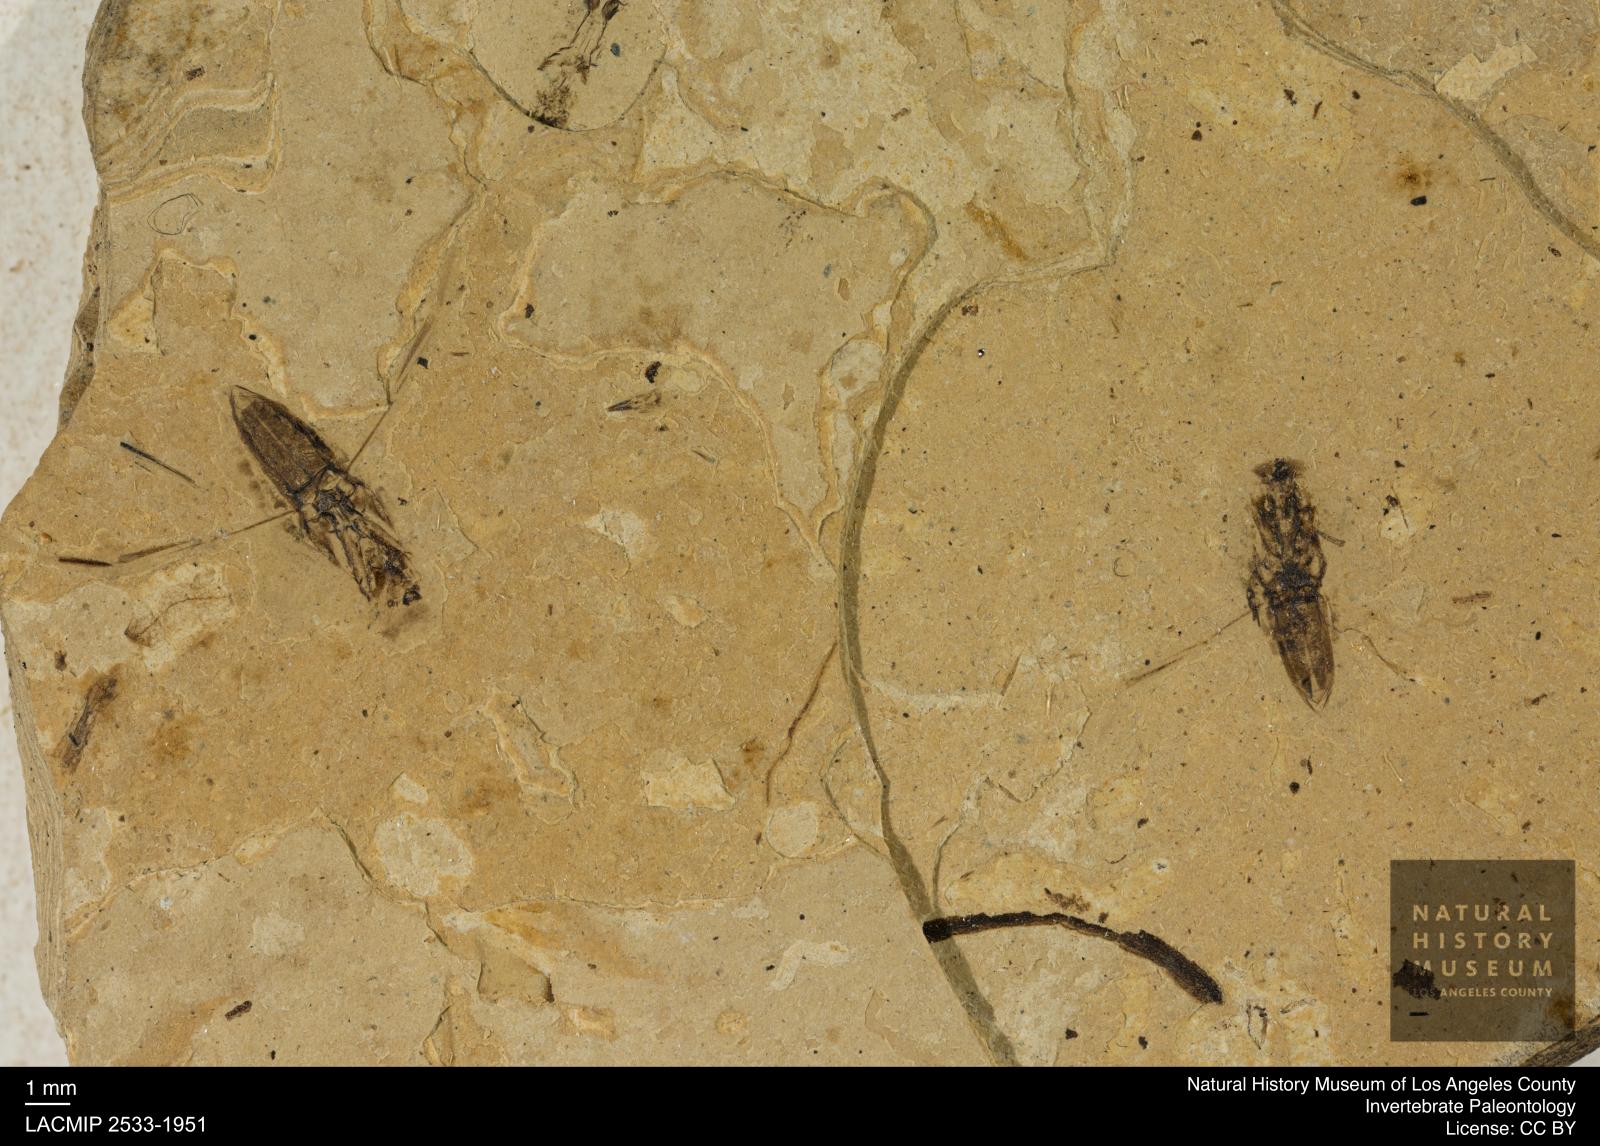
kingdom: Animalia
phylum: Arthropoda
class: Insecta
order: Hemiptera
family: Notonectidae
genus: Anisops
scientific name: Anisops Notonecta deichmuelleri
